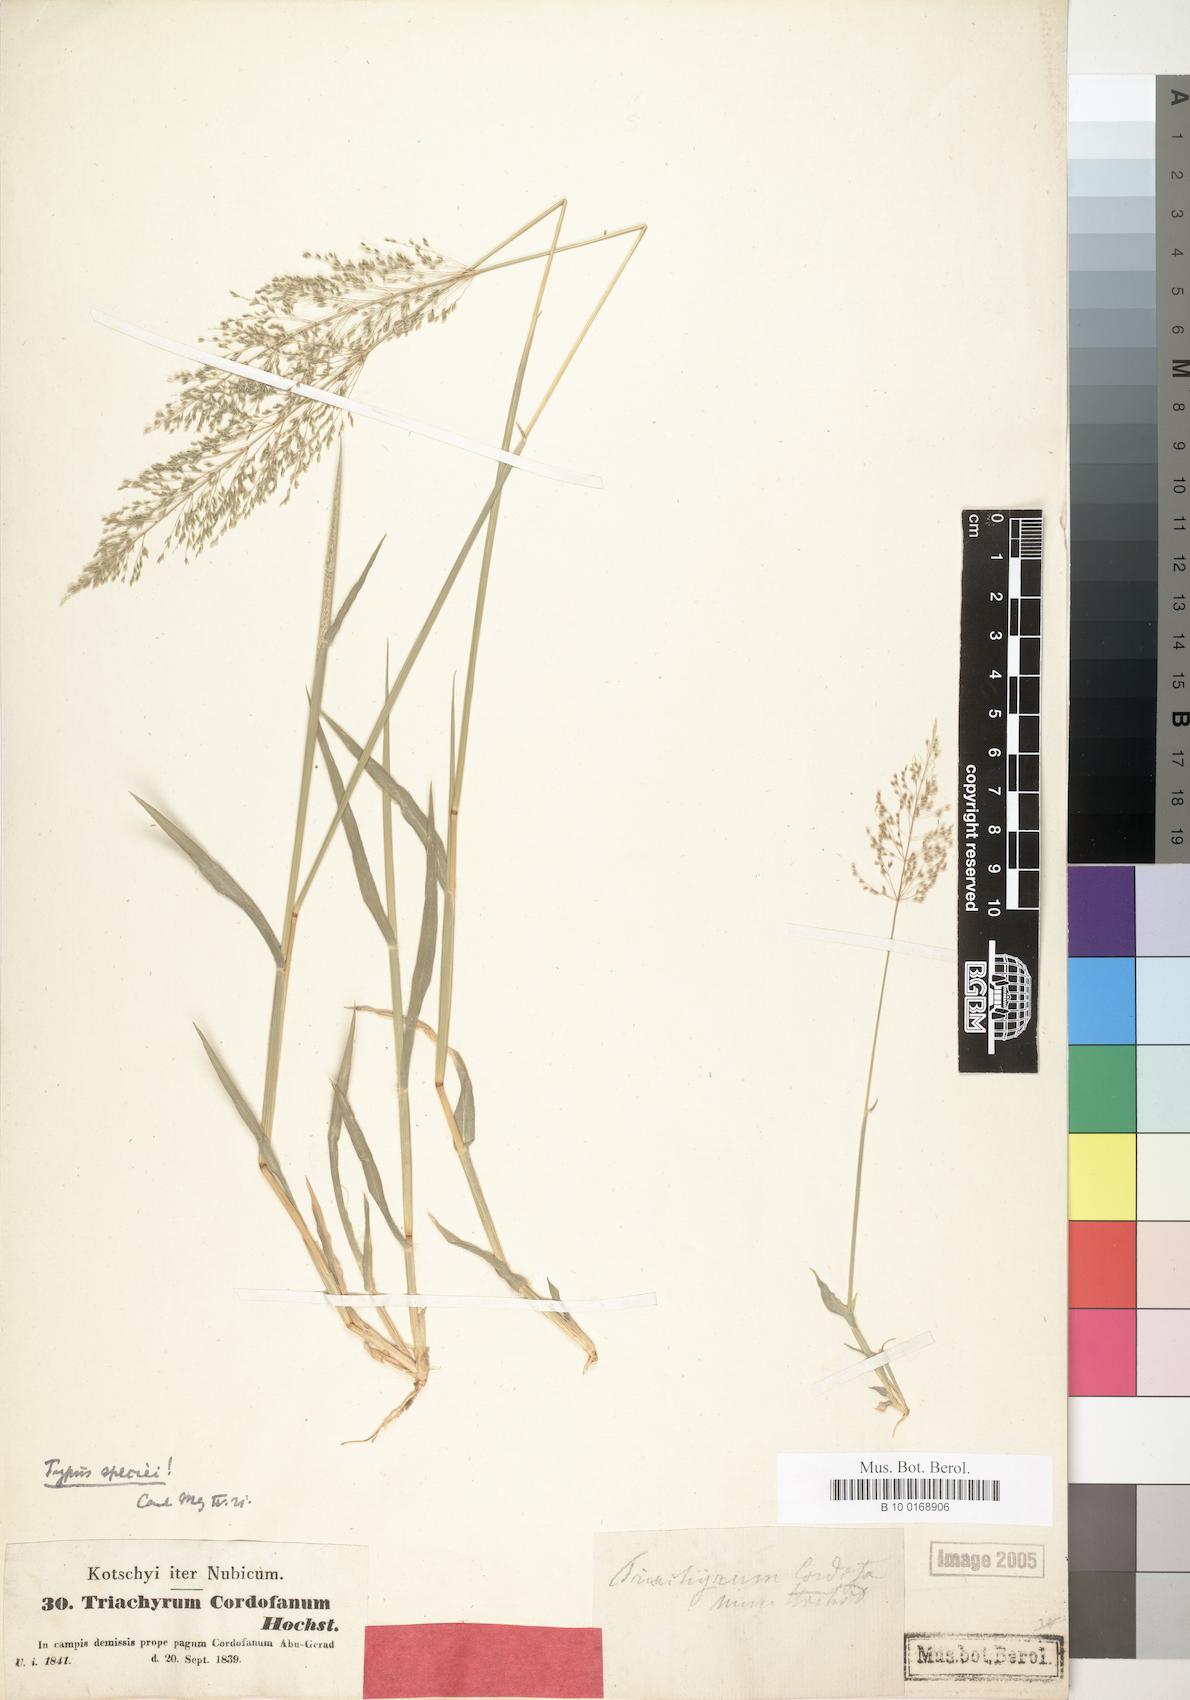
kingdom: Plantae
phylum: Tracheophyta
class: Liliopsida
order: Poales
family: Poaceae
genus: Sporobolus
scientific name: Sporobolus cordofanus
